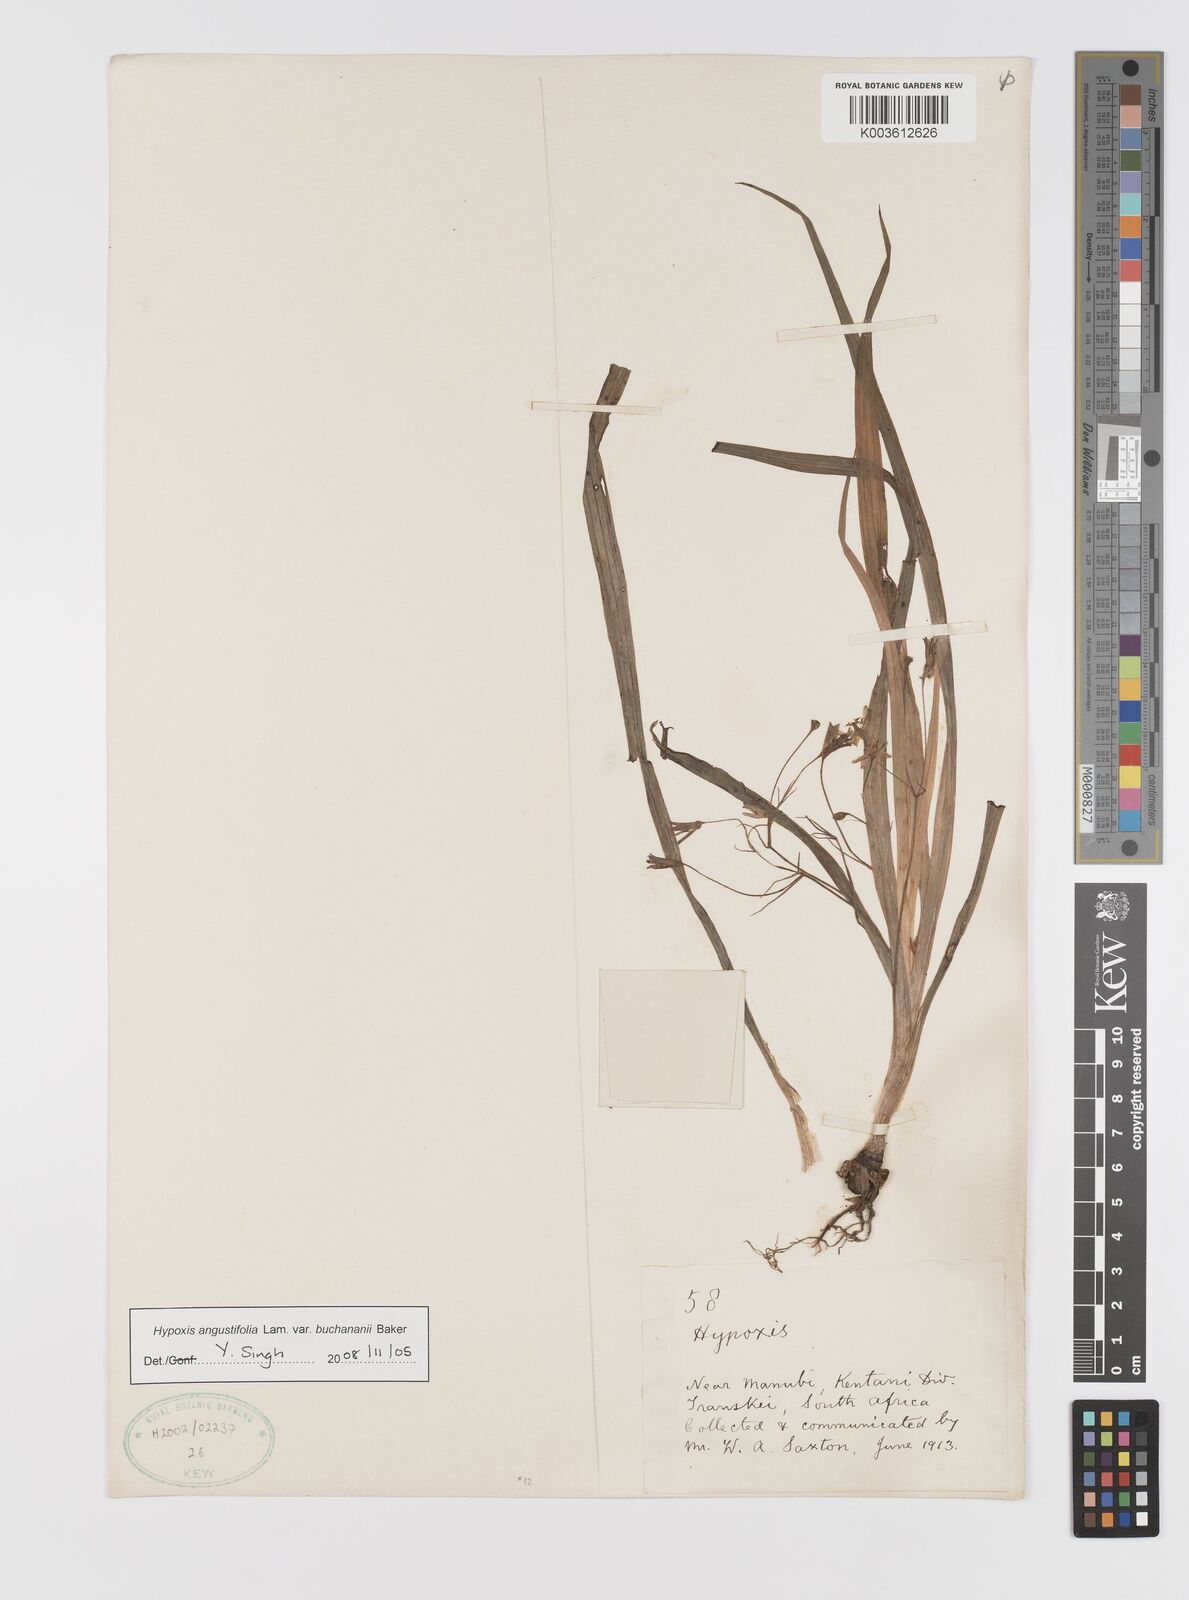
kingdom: Plantae
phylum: Tracheophyta
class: Liliopsida
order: Asparagales
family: Hypoxidaceae
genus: Hypoxis
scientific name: Hypoxis angustifolia
